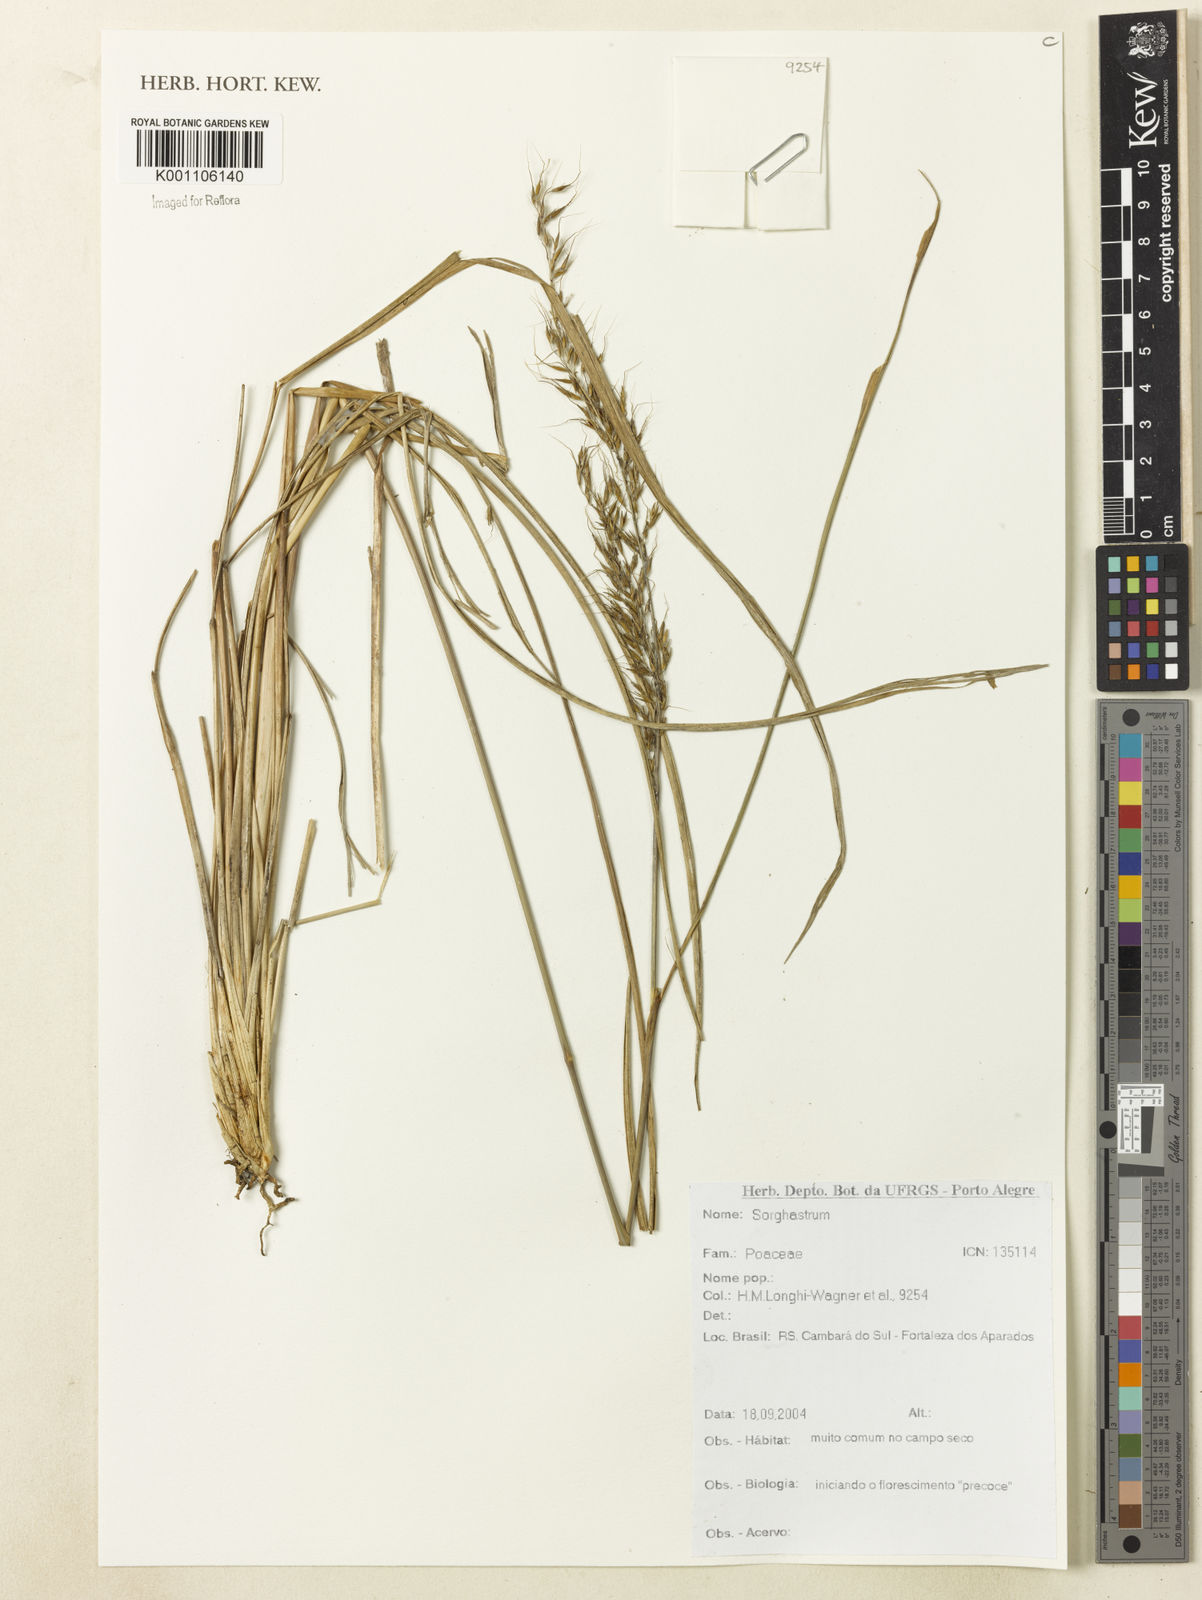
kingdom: Plantae
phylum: Tracheophyta
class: Liliopsida
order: Poales
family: Poaceae
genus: Sorghastrum
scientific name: Sorghastrum
